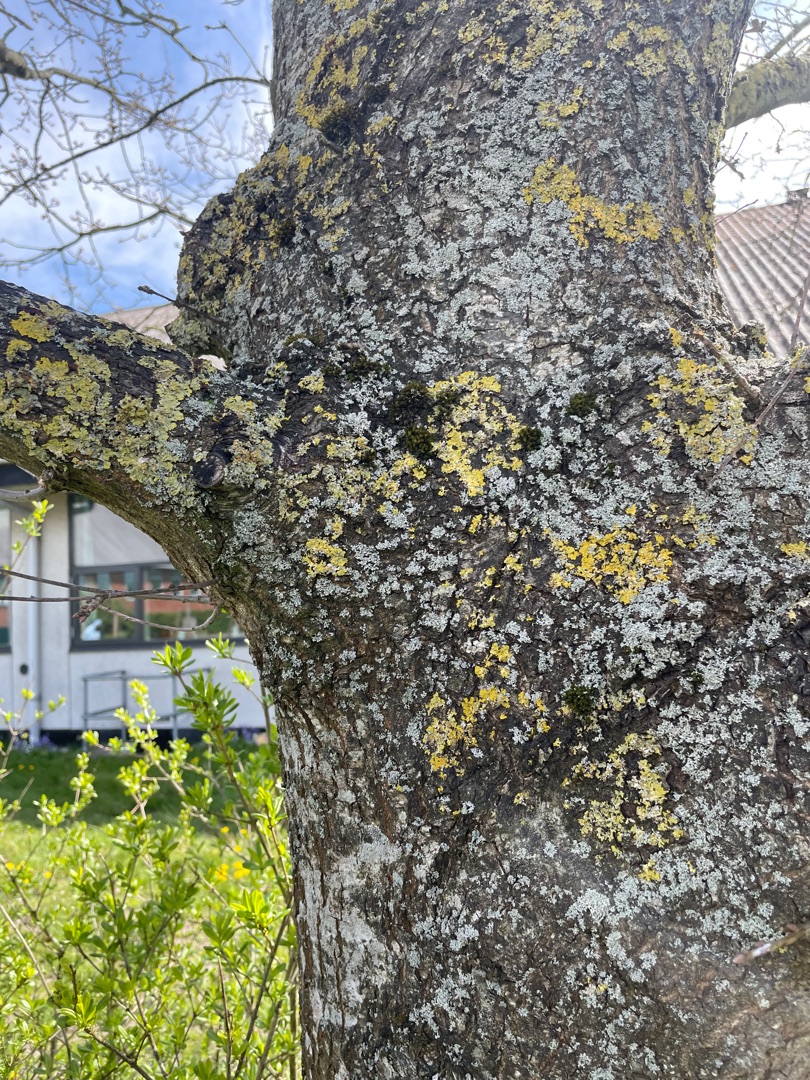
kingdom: Fungi
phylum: Ascomycota
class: Lecanoromycetes
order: Teloschistales
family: Teloschistaceae
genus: Xanthoria
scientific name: Xanthoria parietina
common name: Almindelig væggelav
